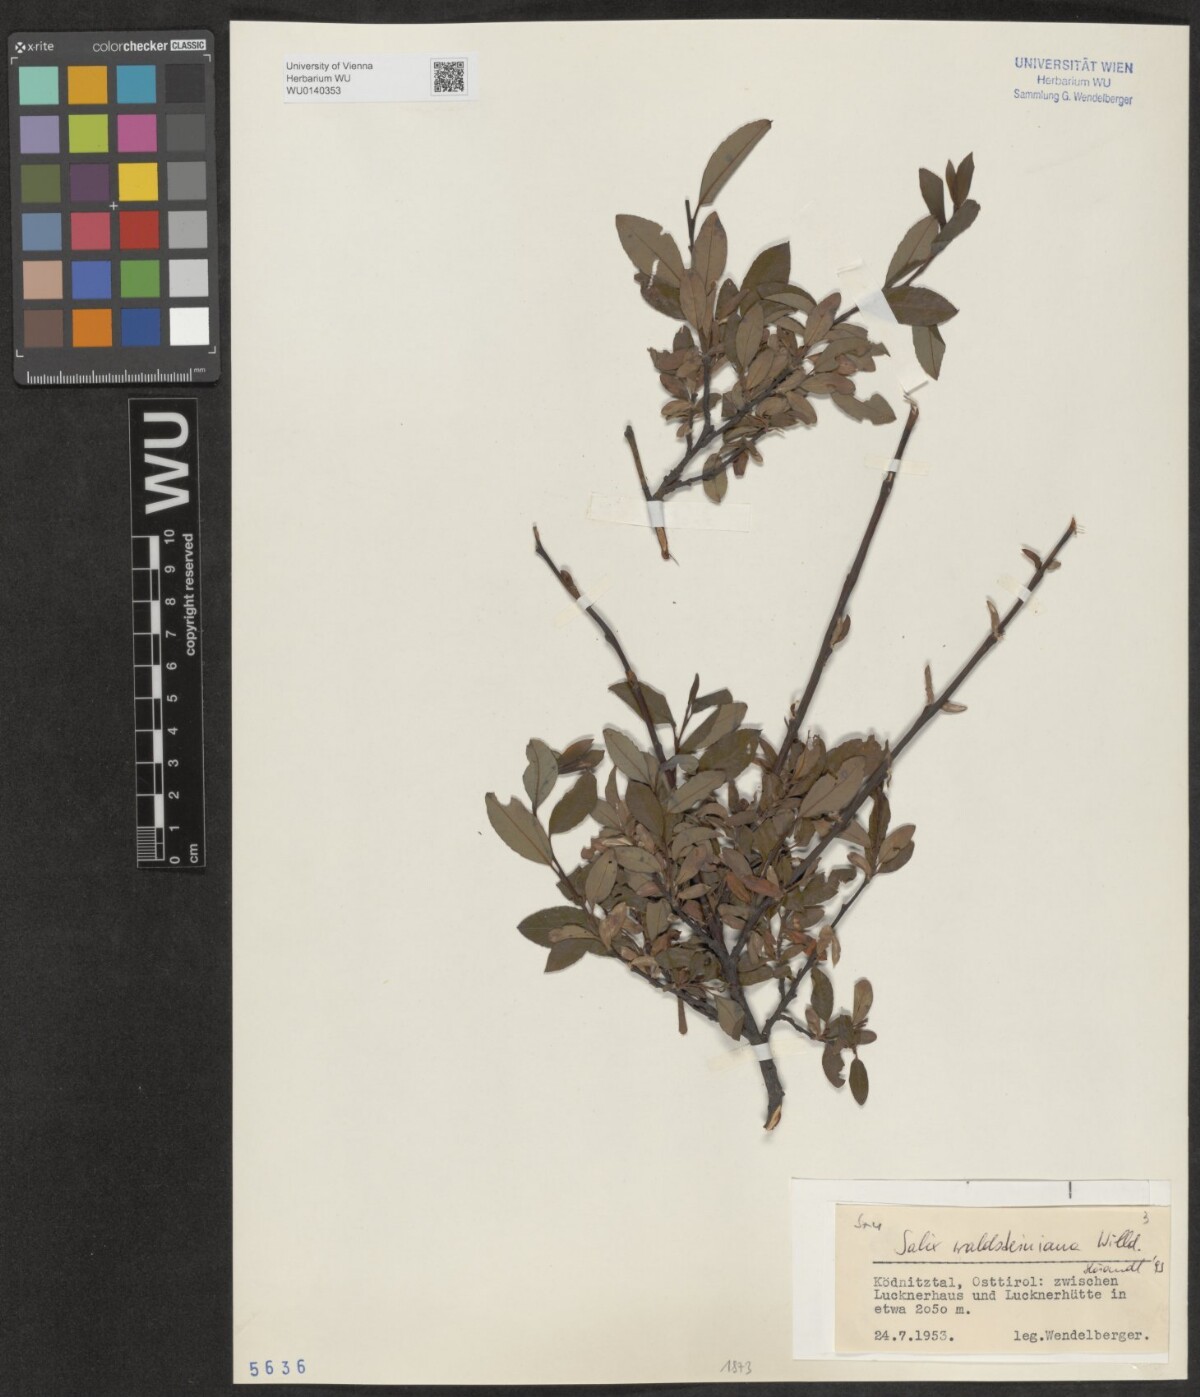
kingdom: Plantae
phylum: Tracheophyta
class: Magnoliopsida
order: Malpighiales
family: Salicaceae
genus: Salix
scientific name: Salix waldsteiniana
